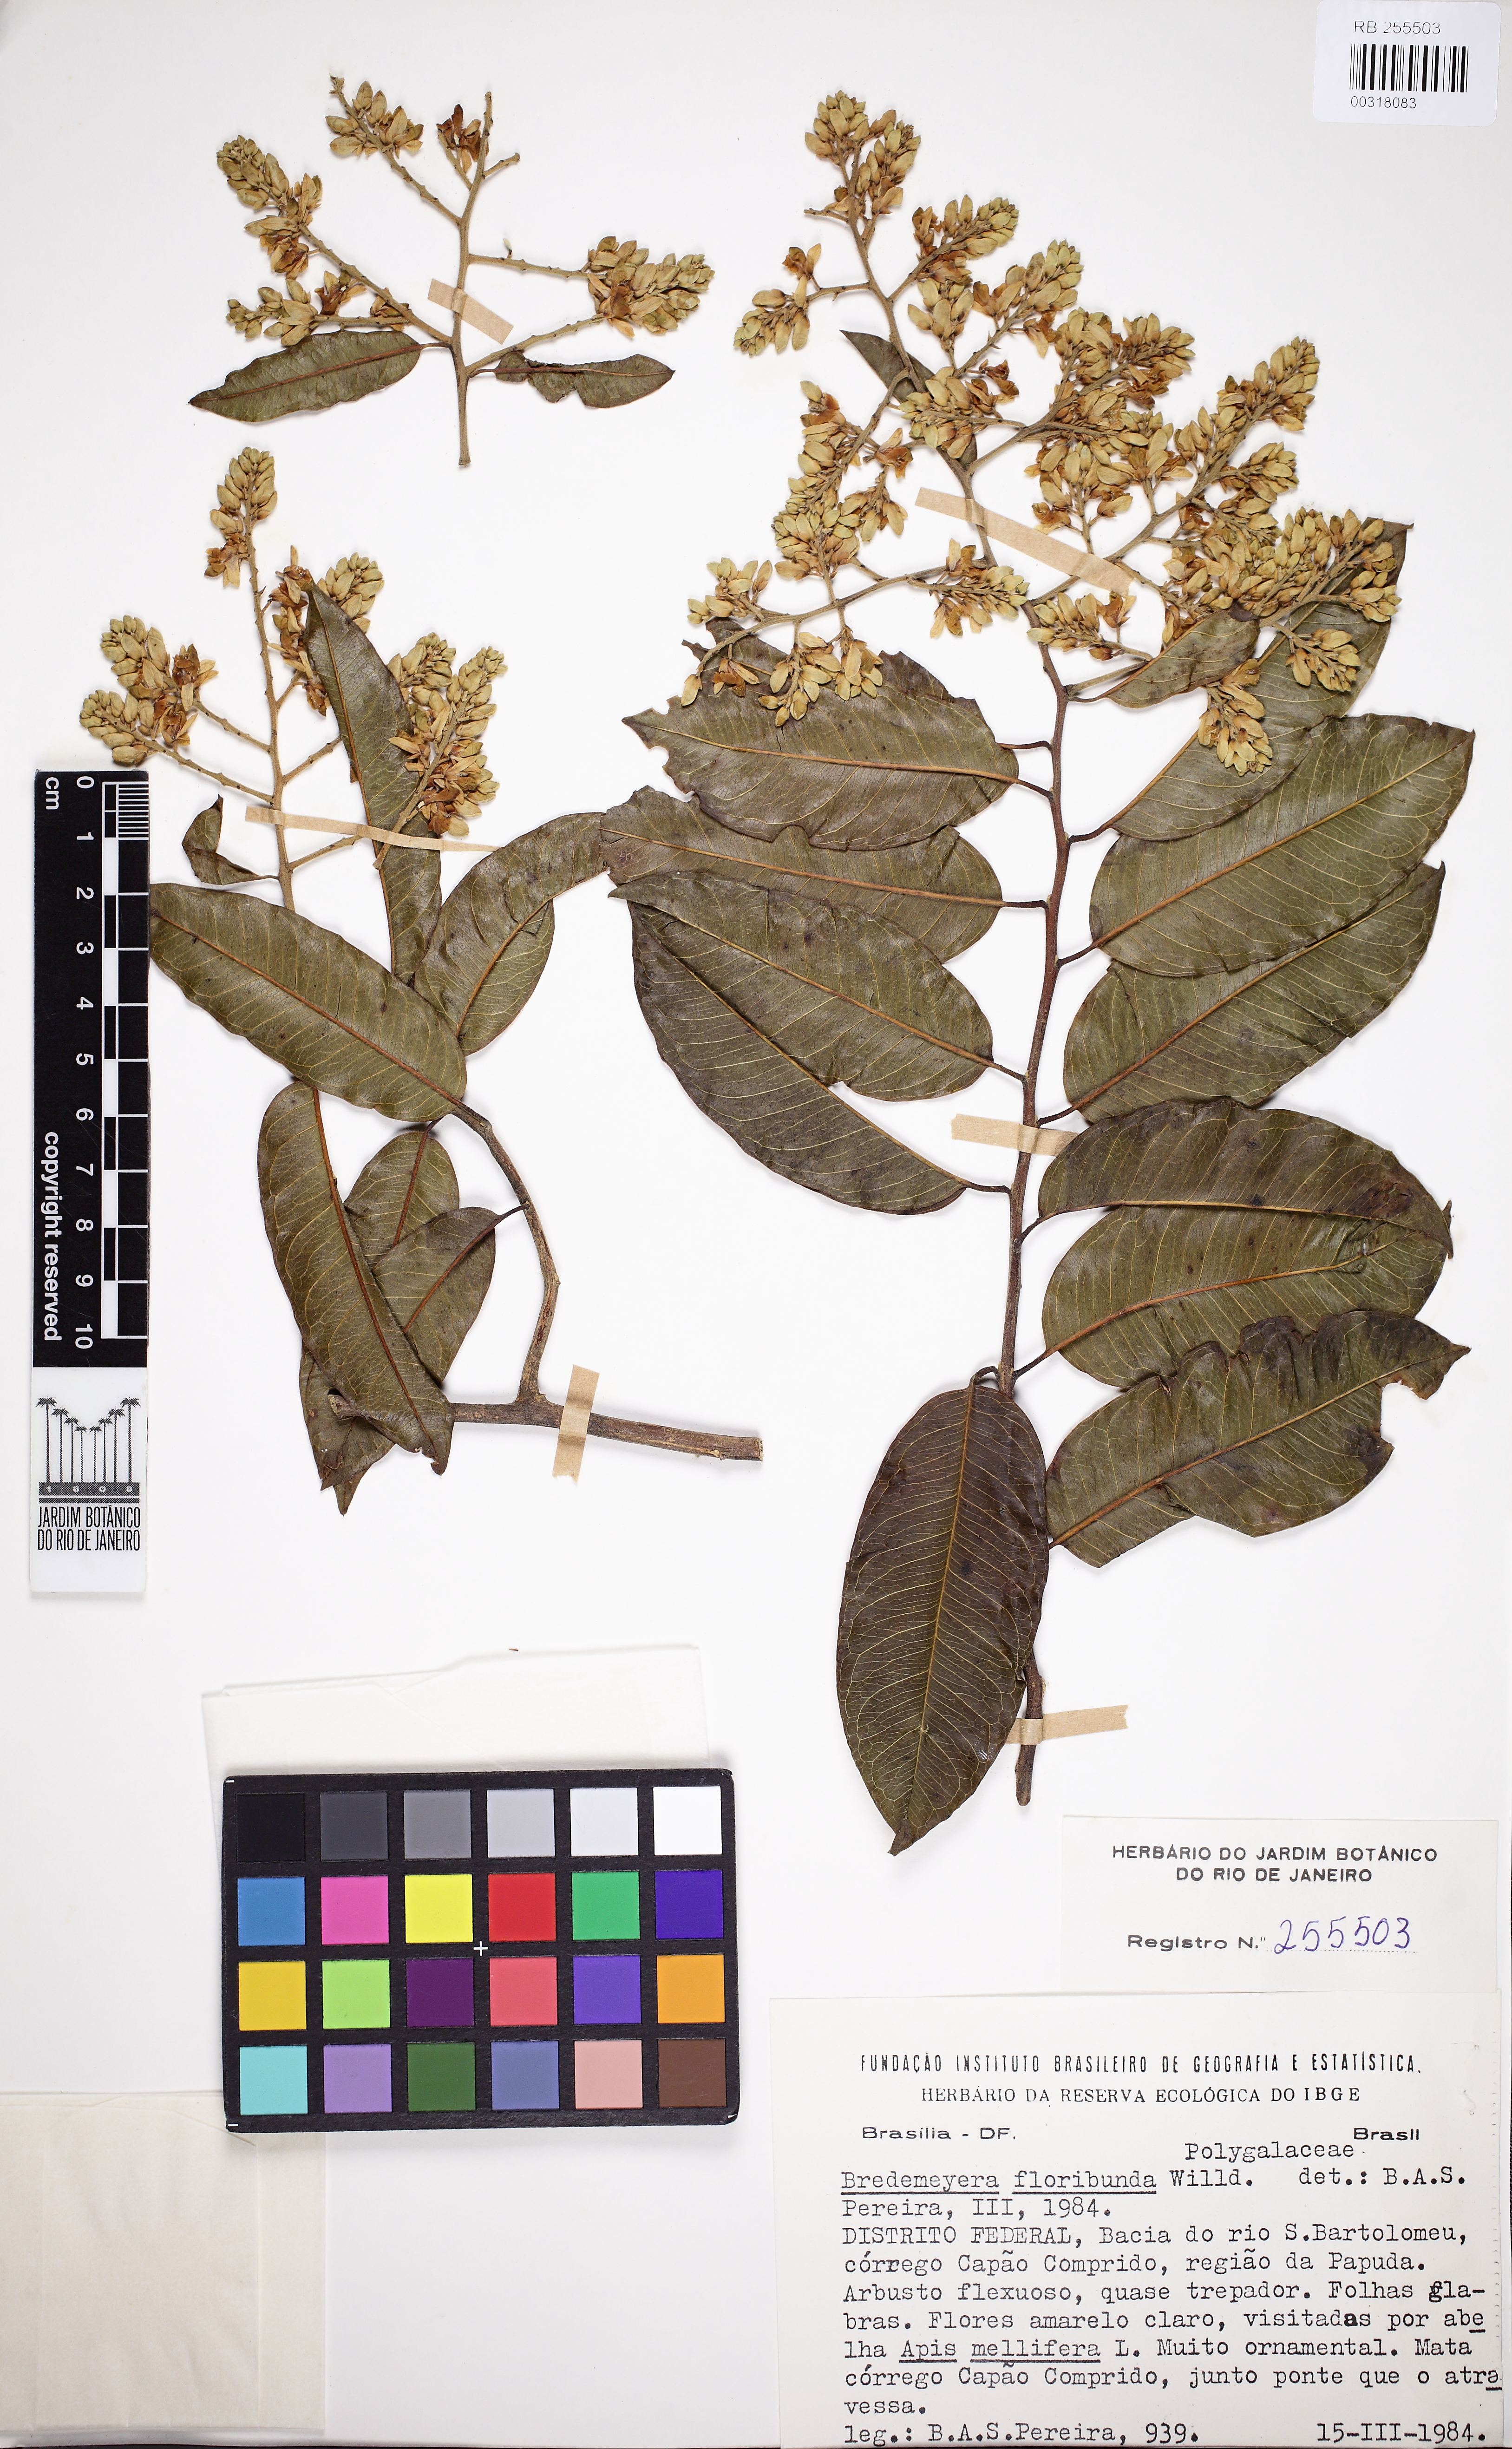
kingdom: Plantae
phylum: Tracheophyta
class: Magnoliopsida
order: Fabales
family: Polygalaceae
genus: Bredemeyera
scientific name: Bredemeyera floribunda
